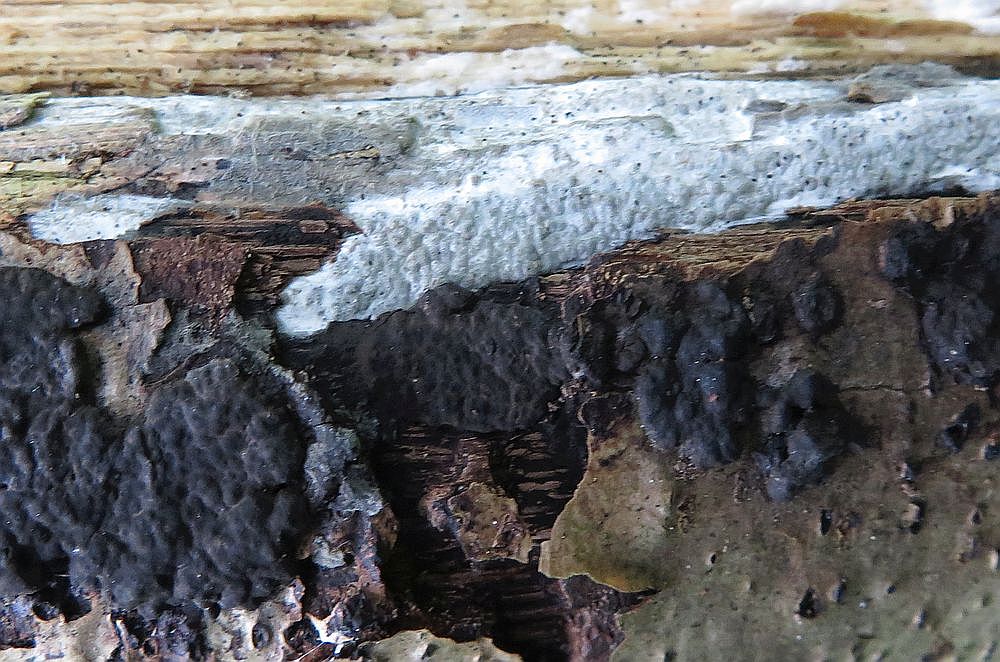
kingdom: Fungi
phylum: Ascomycota
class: Sordariomycetes
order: Xylariales
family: Xylariaceae
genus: Nemania
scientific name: Nemania diffusa
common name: brun kuldyne
